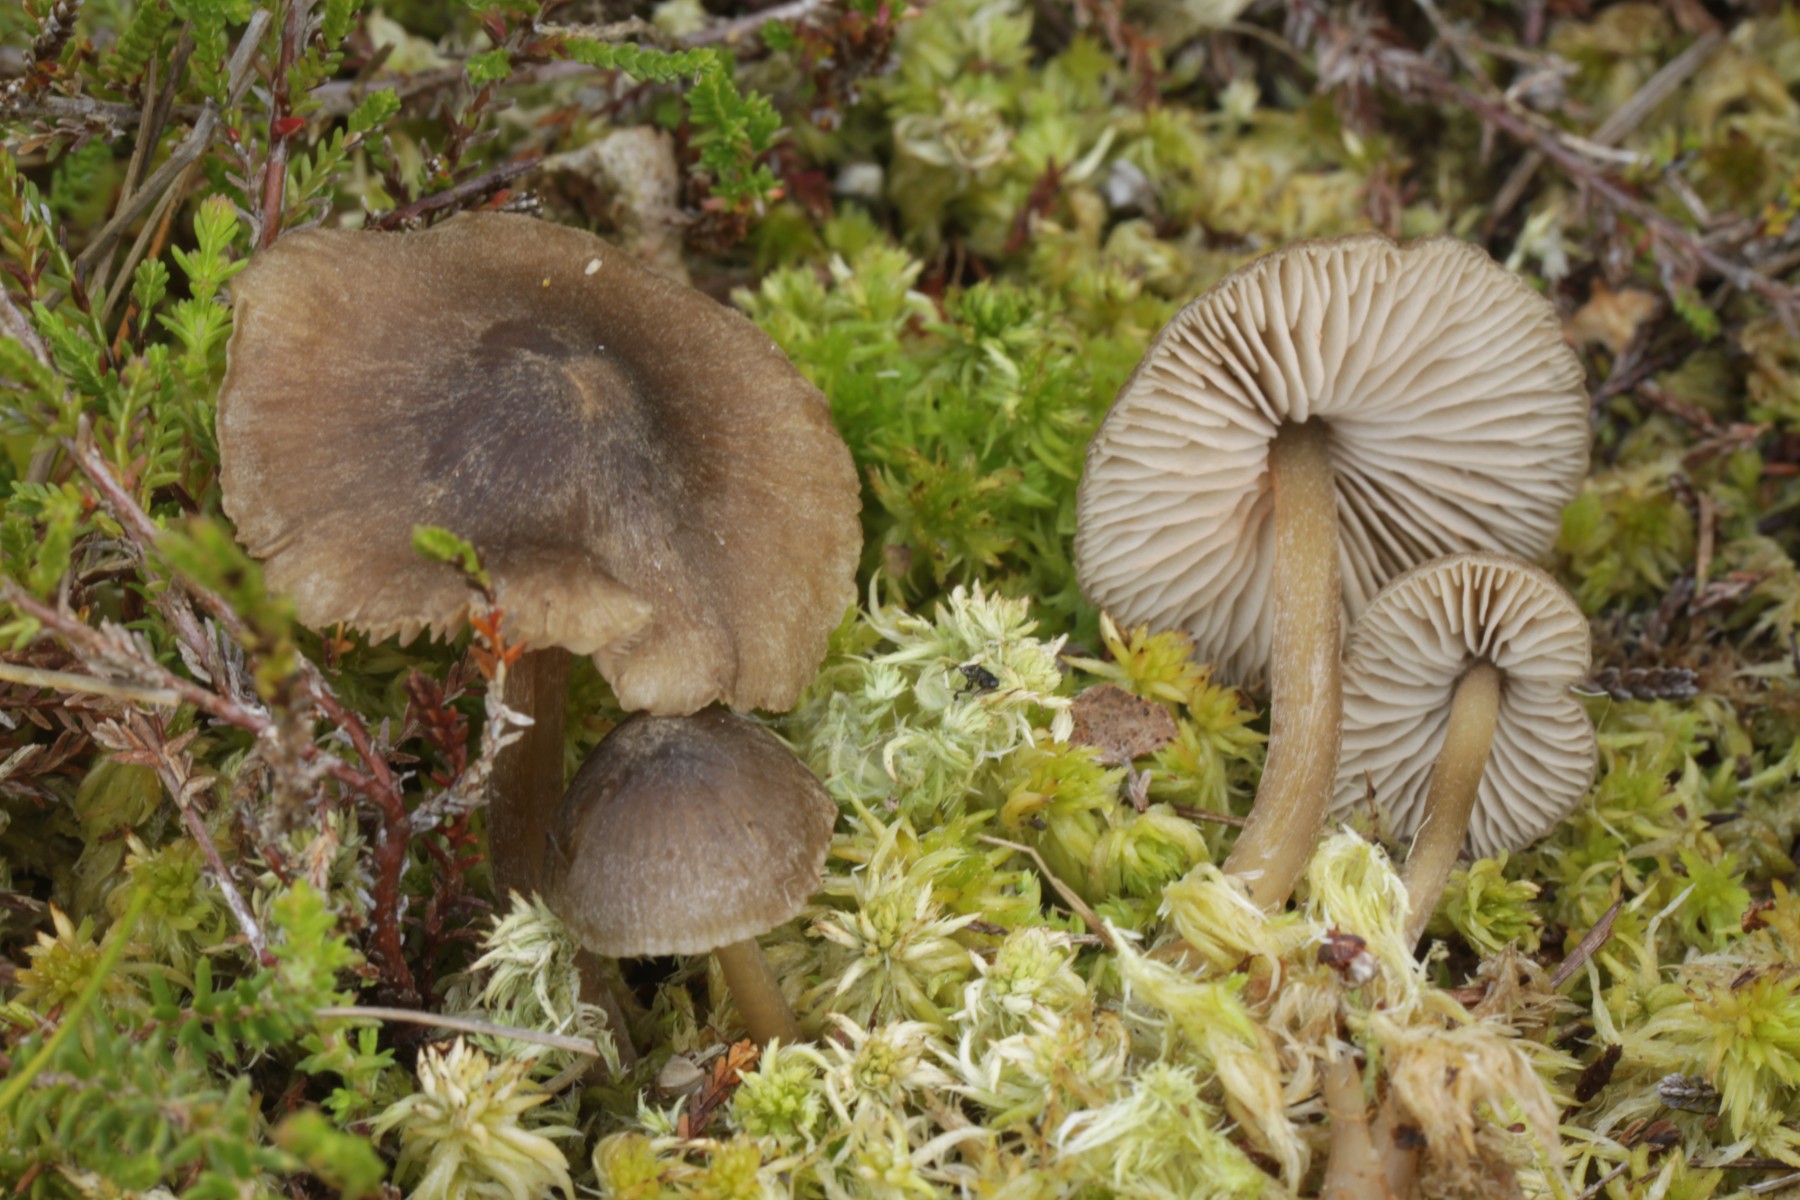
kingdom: Fungi
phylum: Basidiomycota
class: Agaricomycetes
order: Agaricales
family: Entolomataceae
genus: Entoloma
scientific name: Entoloma
